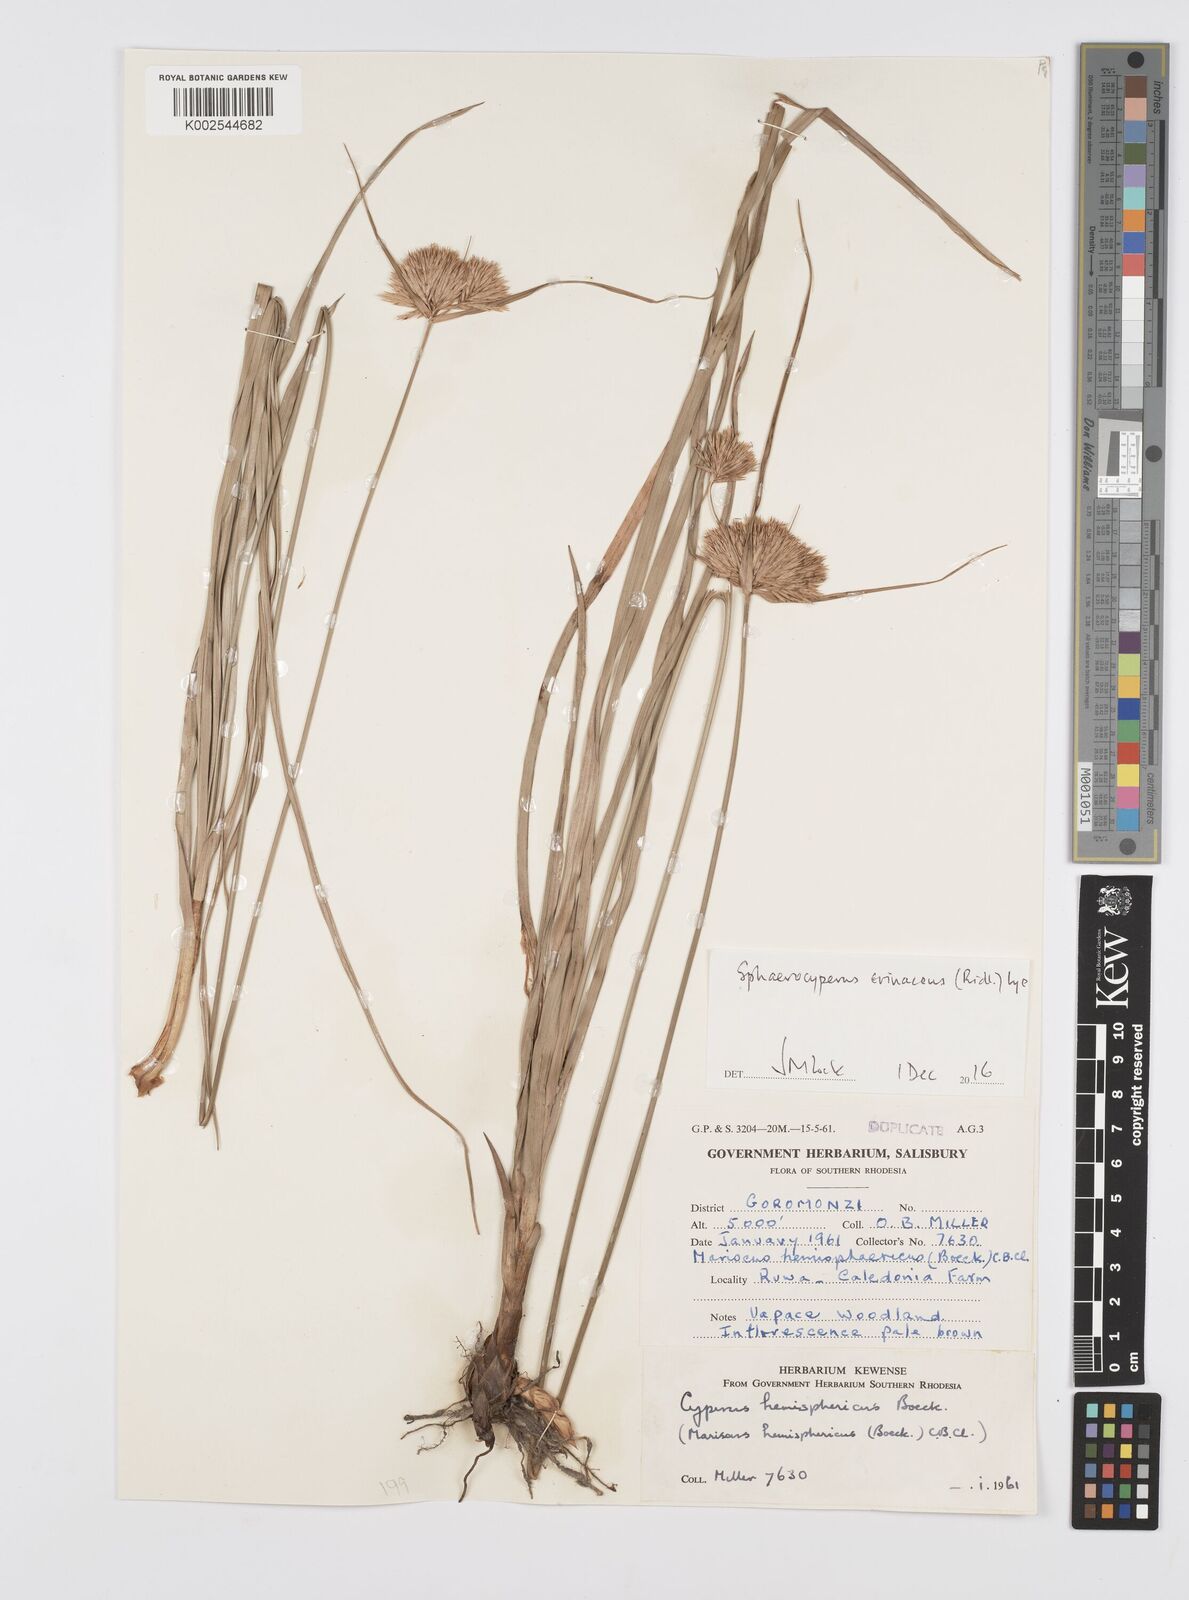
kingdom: Plantae
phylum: Tracheophyta
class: Liliopsida
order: Poales
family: Cyperaceae
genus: Cyperus
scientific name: Cyperus erinaceus
